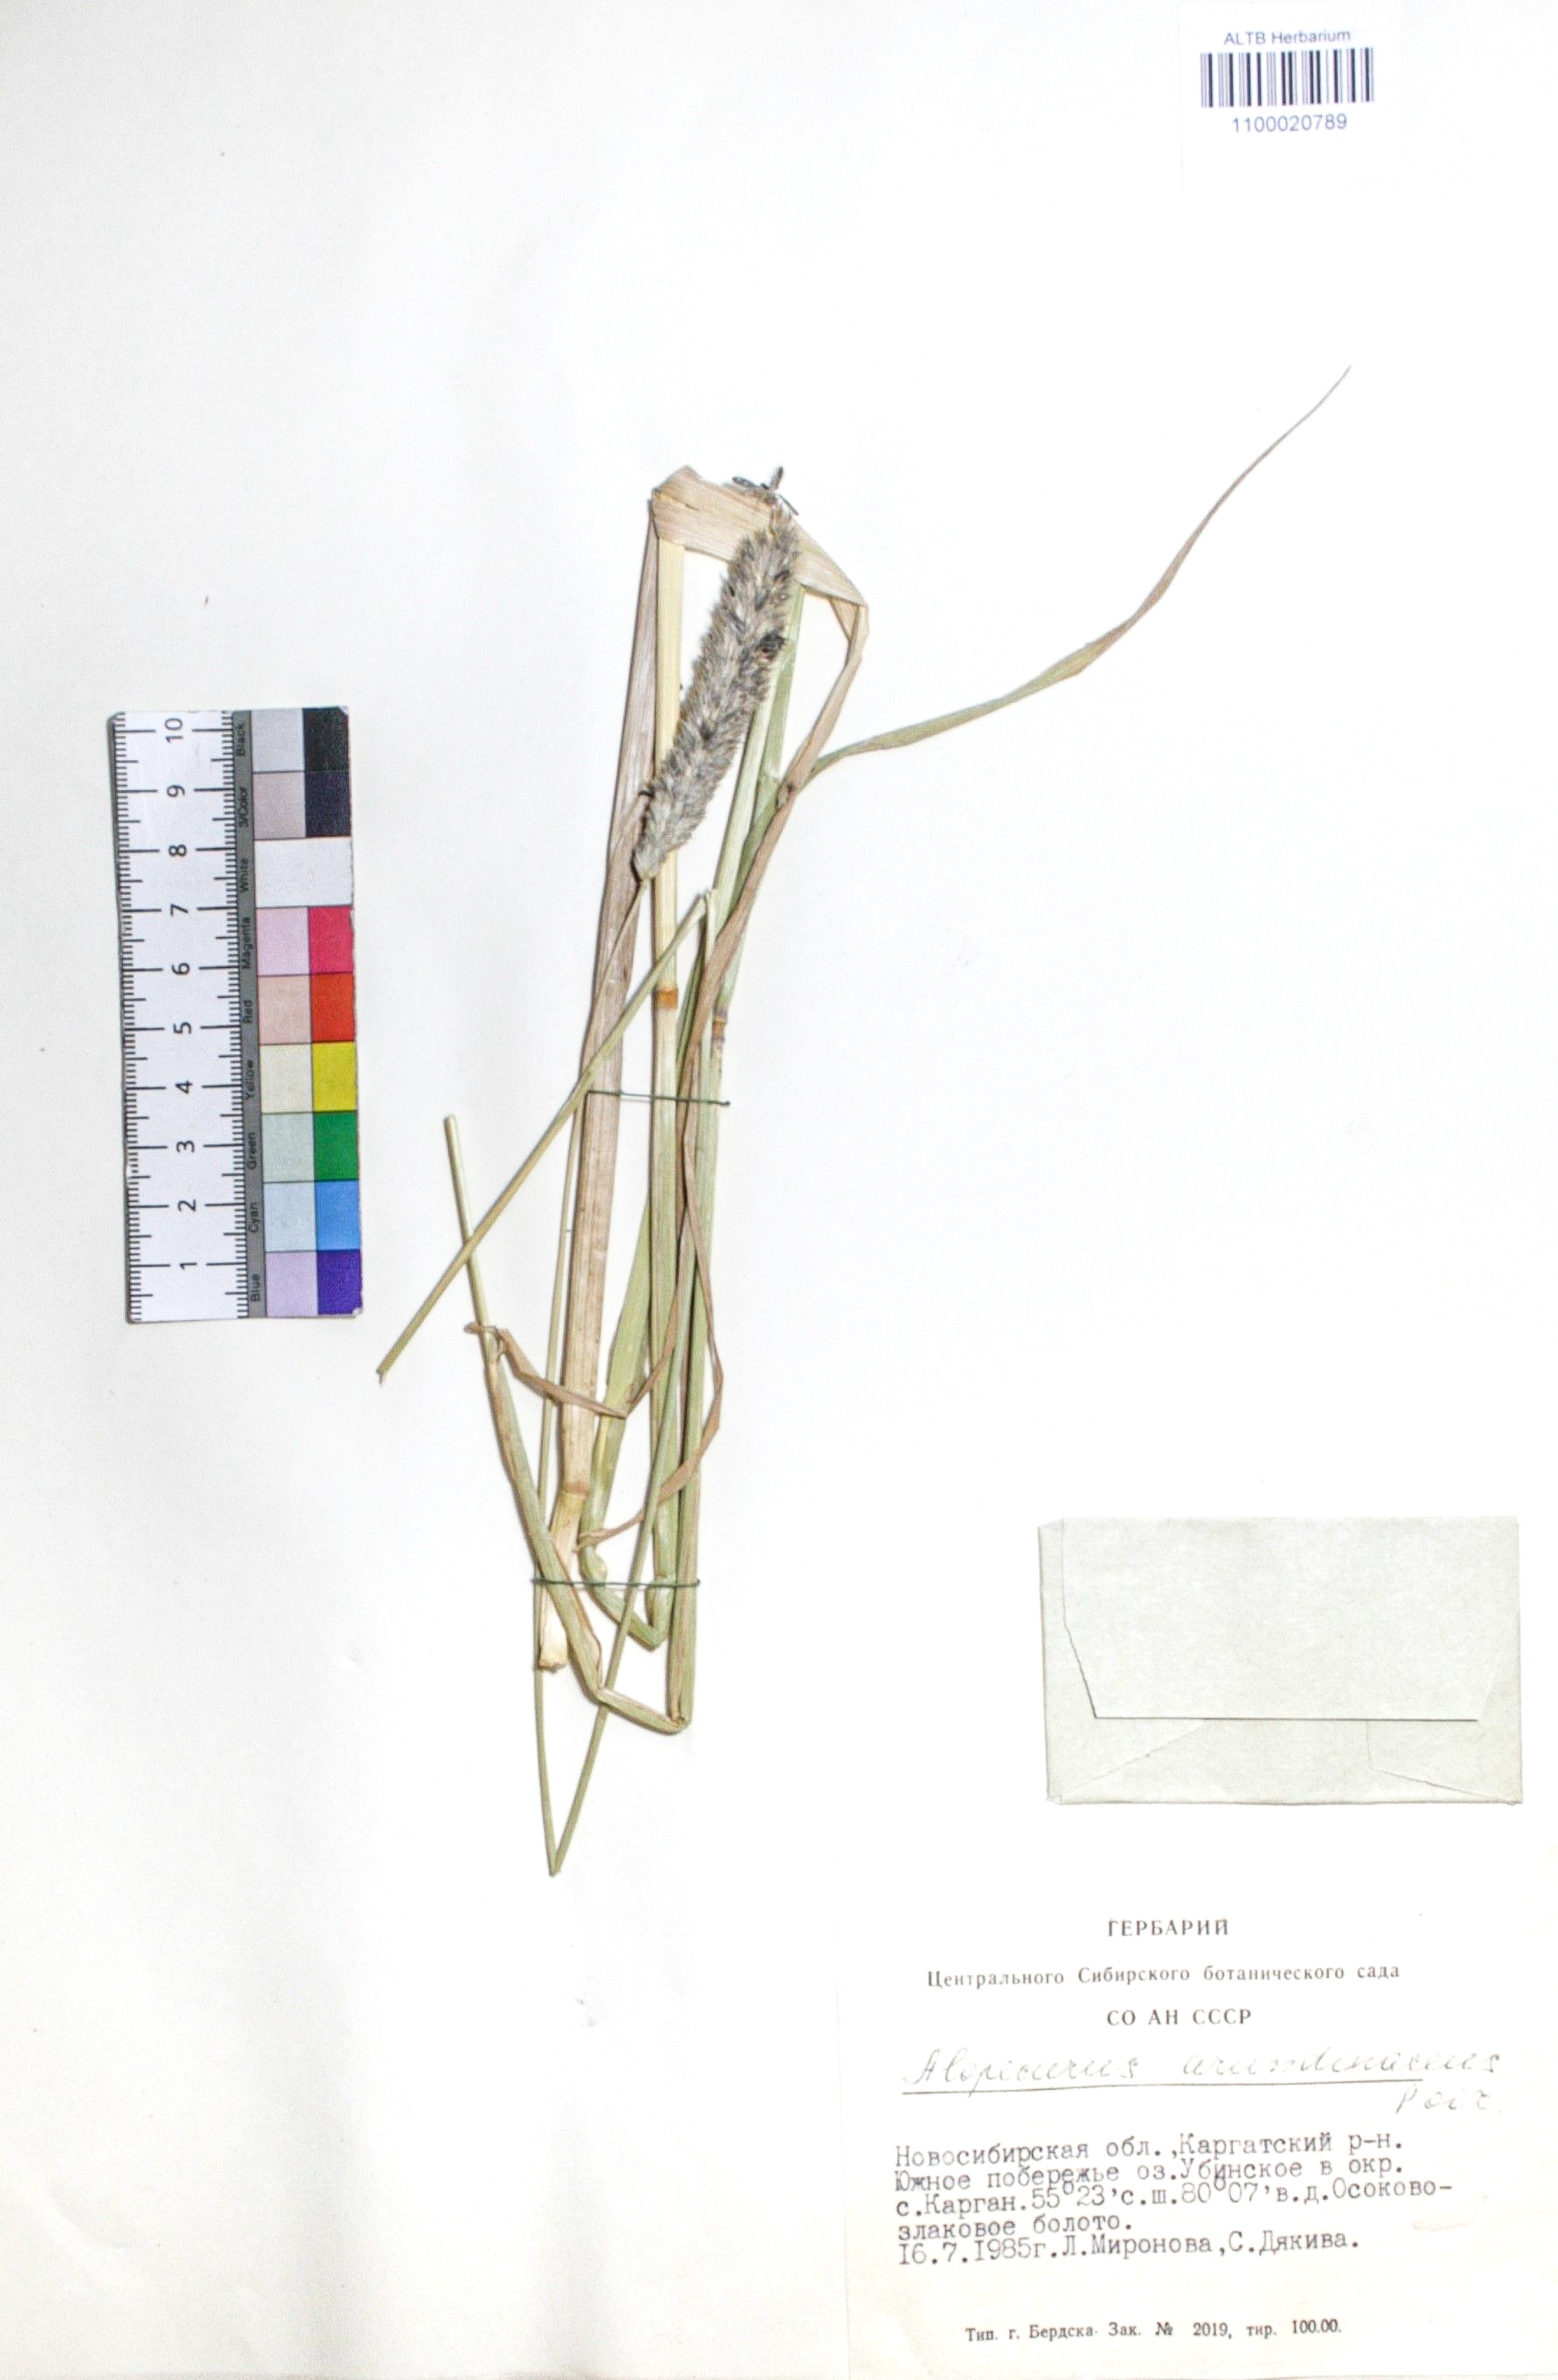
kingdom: Plantae
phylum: Tracheophyta
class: Liliopsida
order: Poales
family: Poaceae
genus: Alopecurus
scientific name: Alopecurus arundinaceus
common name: Creeping meadow foxtail
